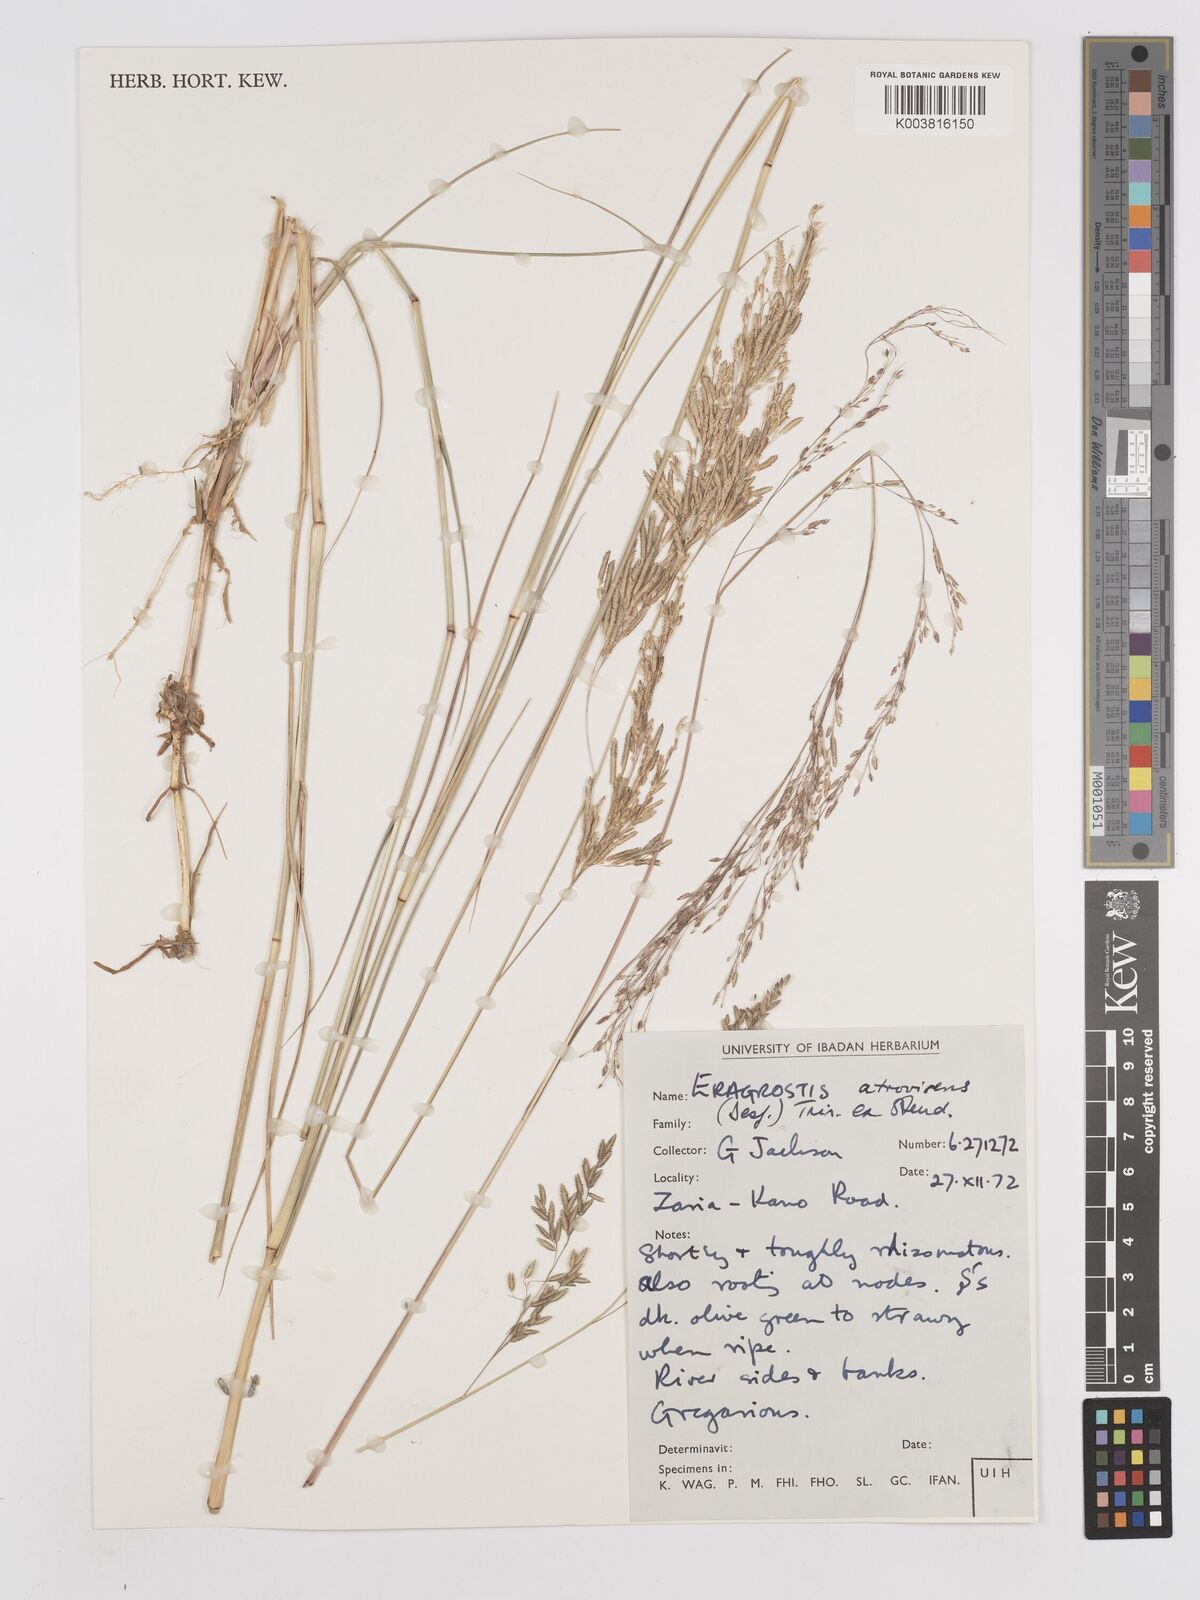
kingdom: Plantae
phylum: Tracheophyta
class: Liliopsida
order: Poales
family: Poaceae
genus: Eragrostis
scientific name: Eragrostis atrovirens
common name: Thalia lovegrass
